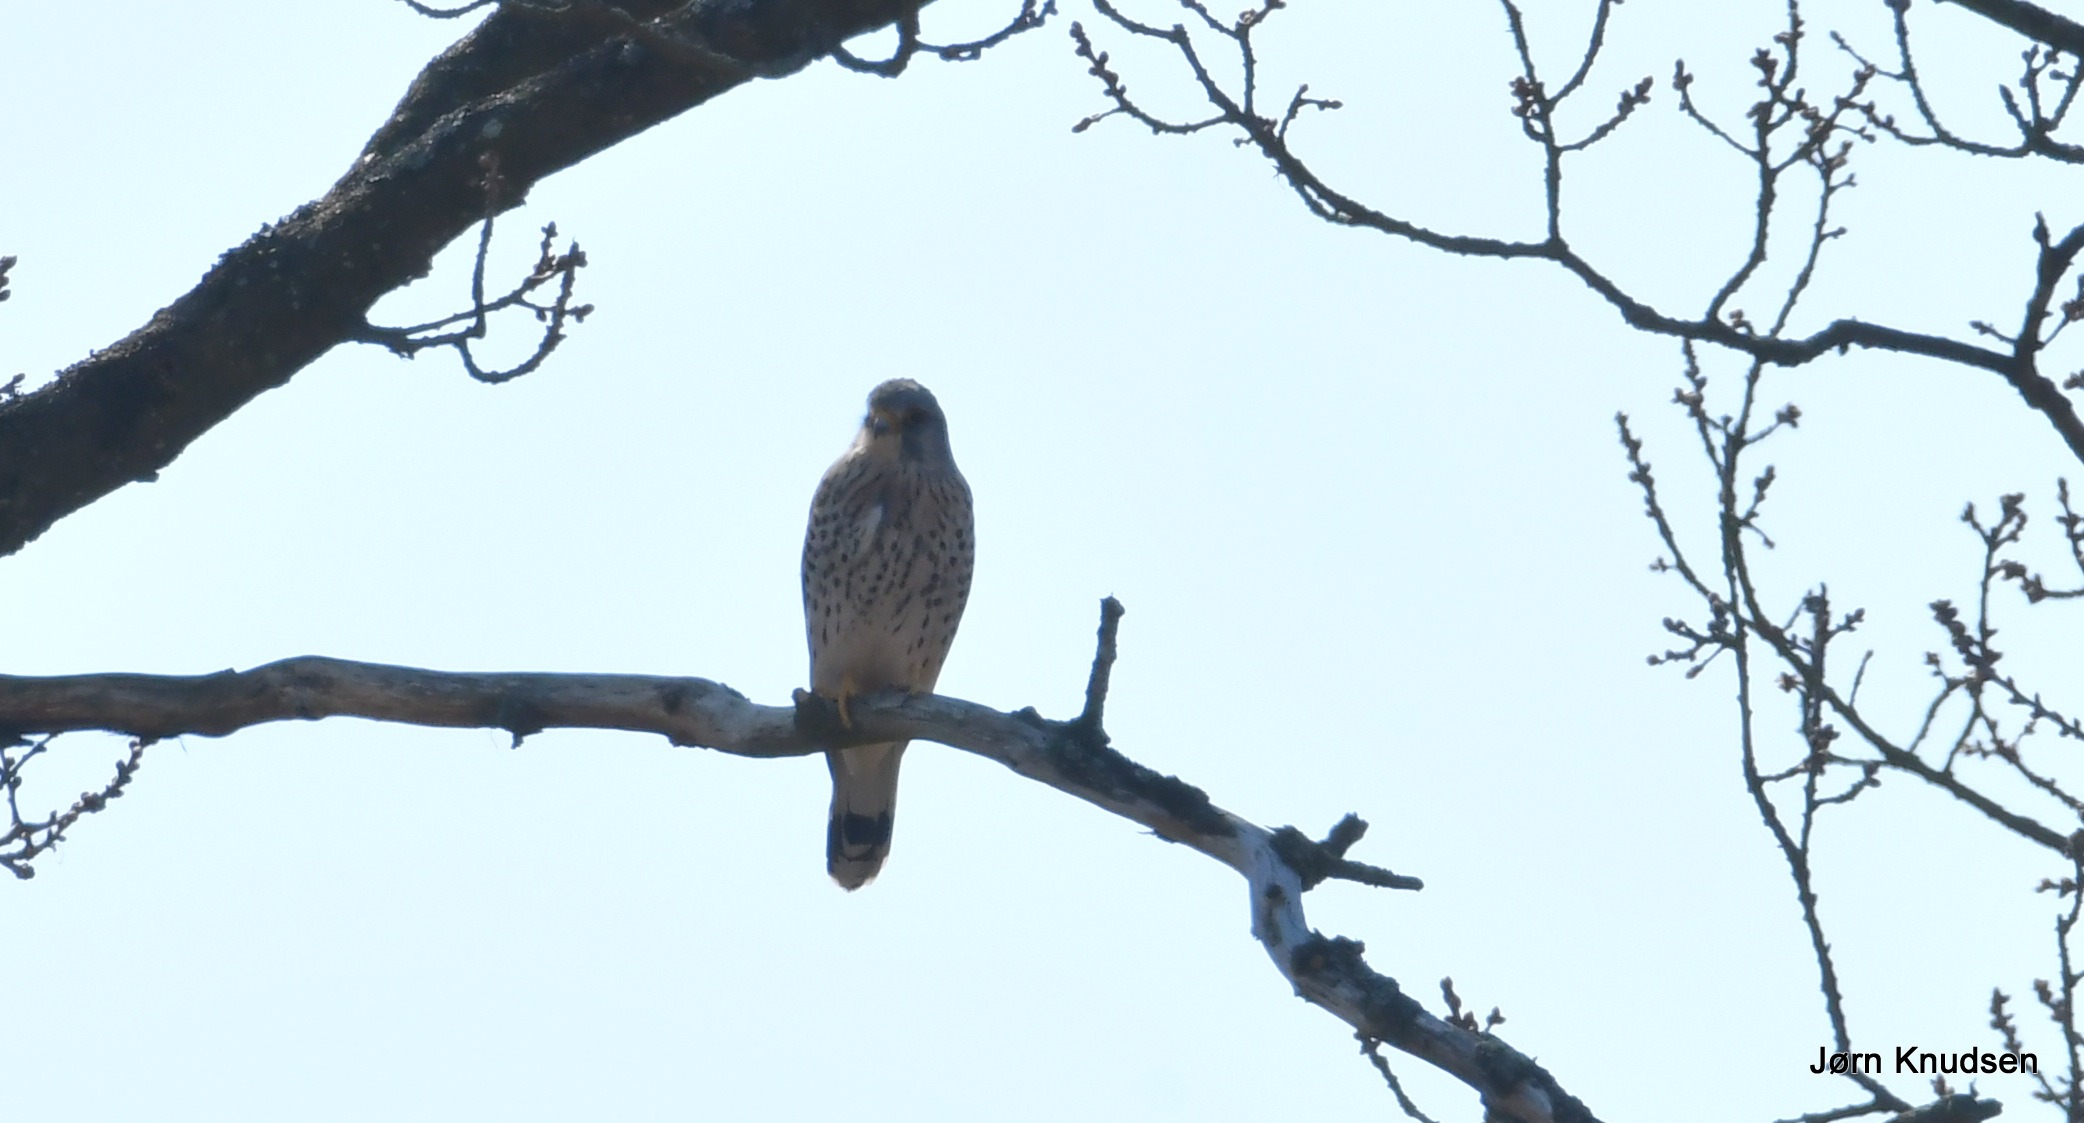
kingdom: Animalia
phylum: Chordata
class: Aves
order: Falconiformes
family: Falconidae
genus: Falco
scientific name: Falco tinnunculus
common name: Tårnfalk
